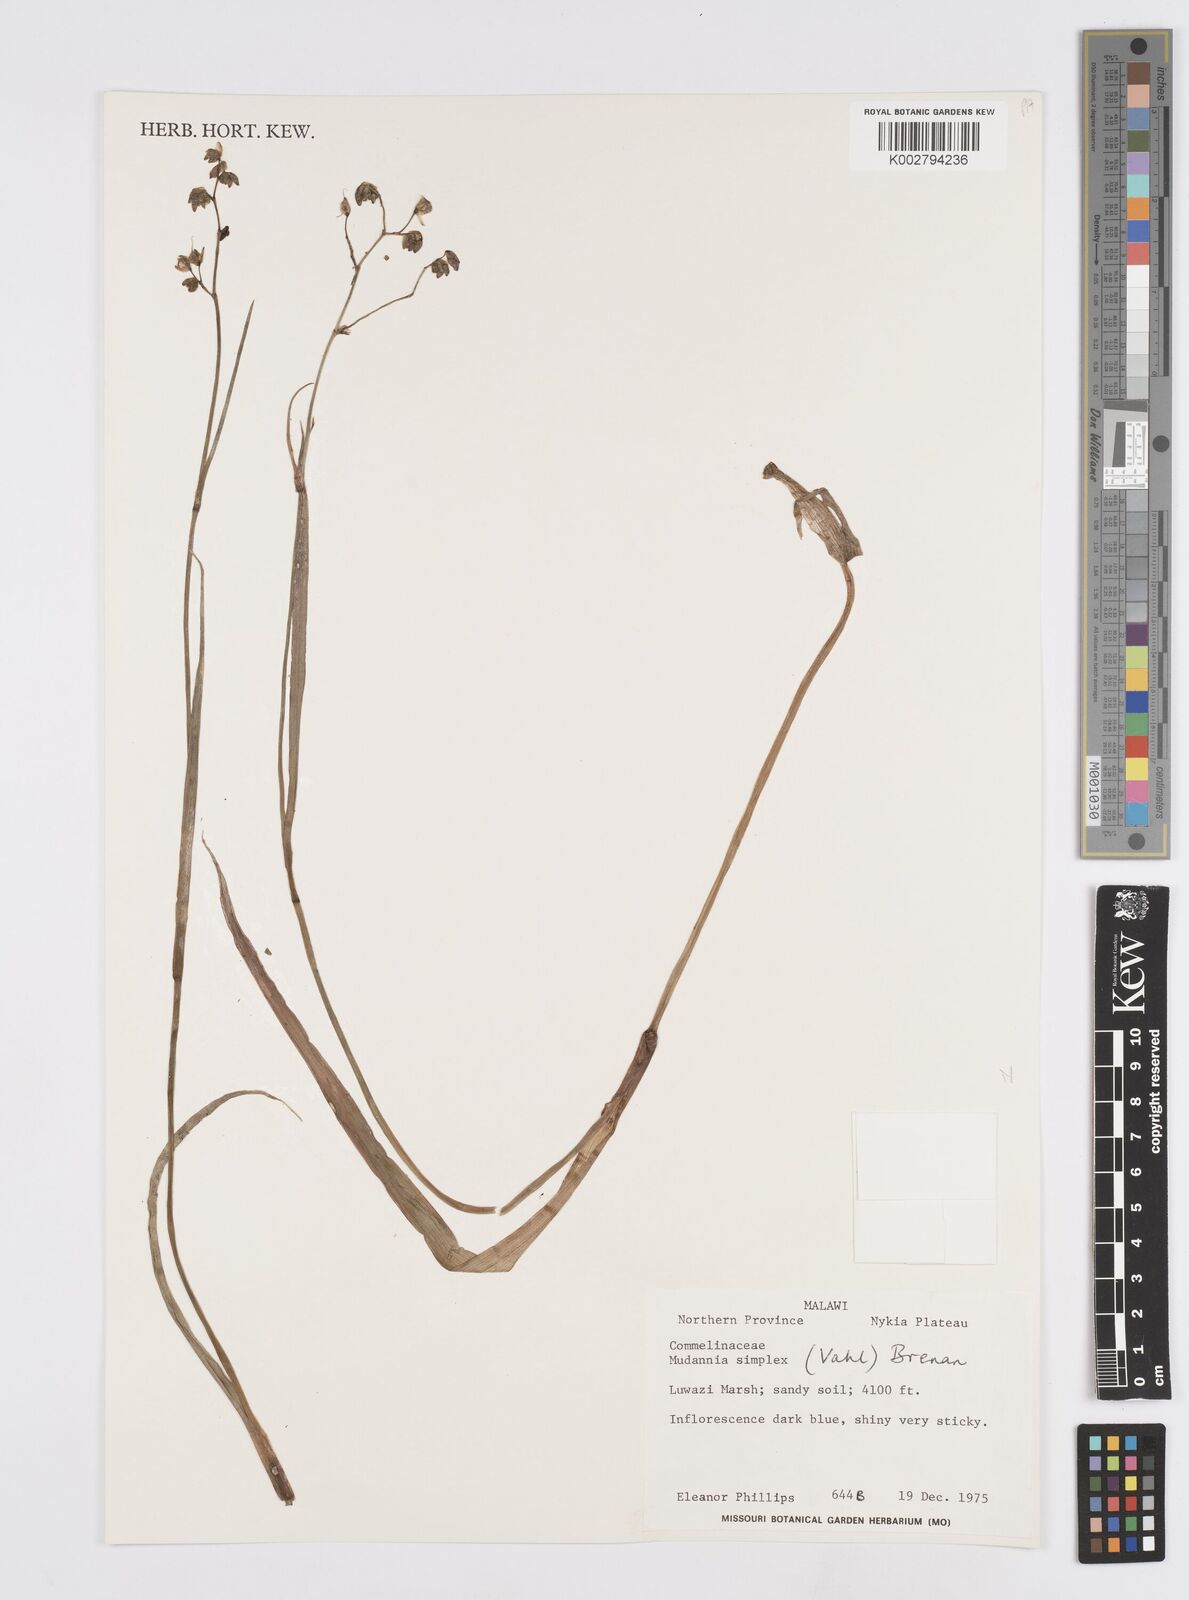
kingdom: Plantae
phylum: Tracheophyta
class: Liliopsida
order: Commelinales
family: Commelinaceae
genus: Murdannia
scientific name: Murdannia simplex
